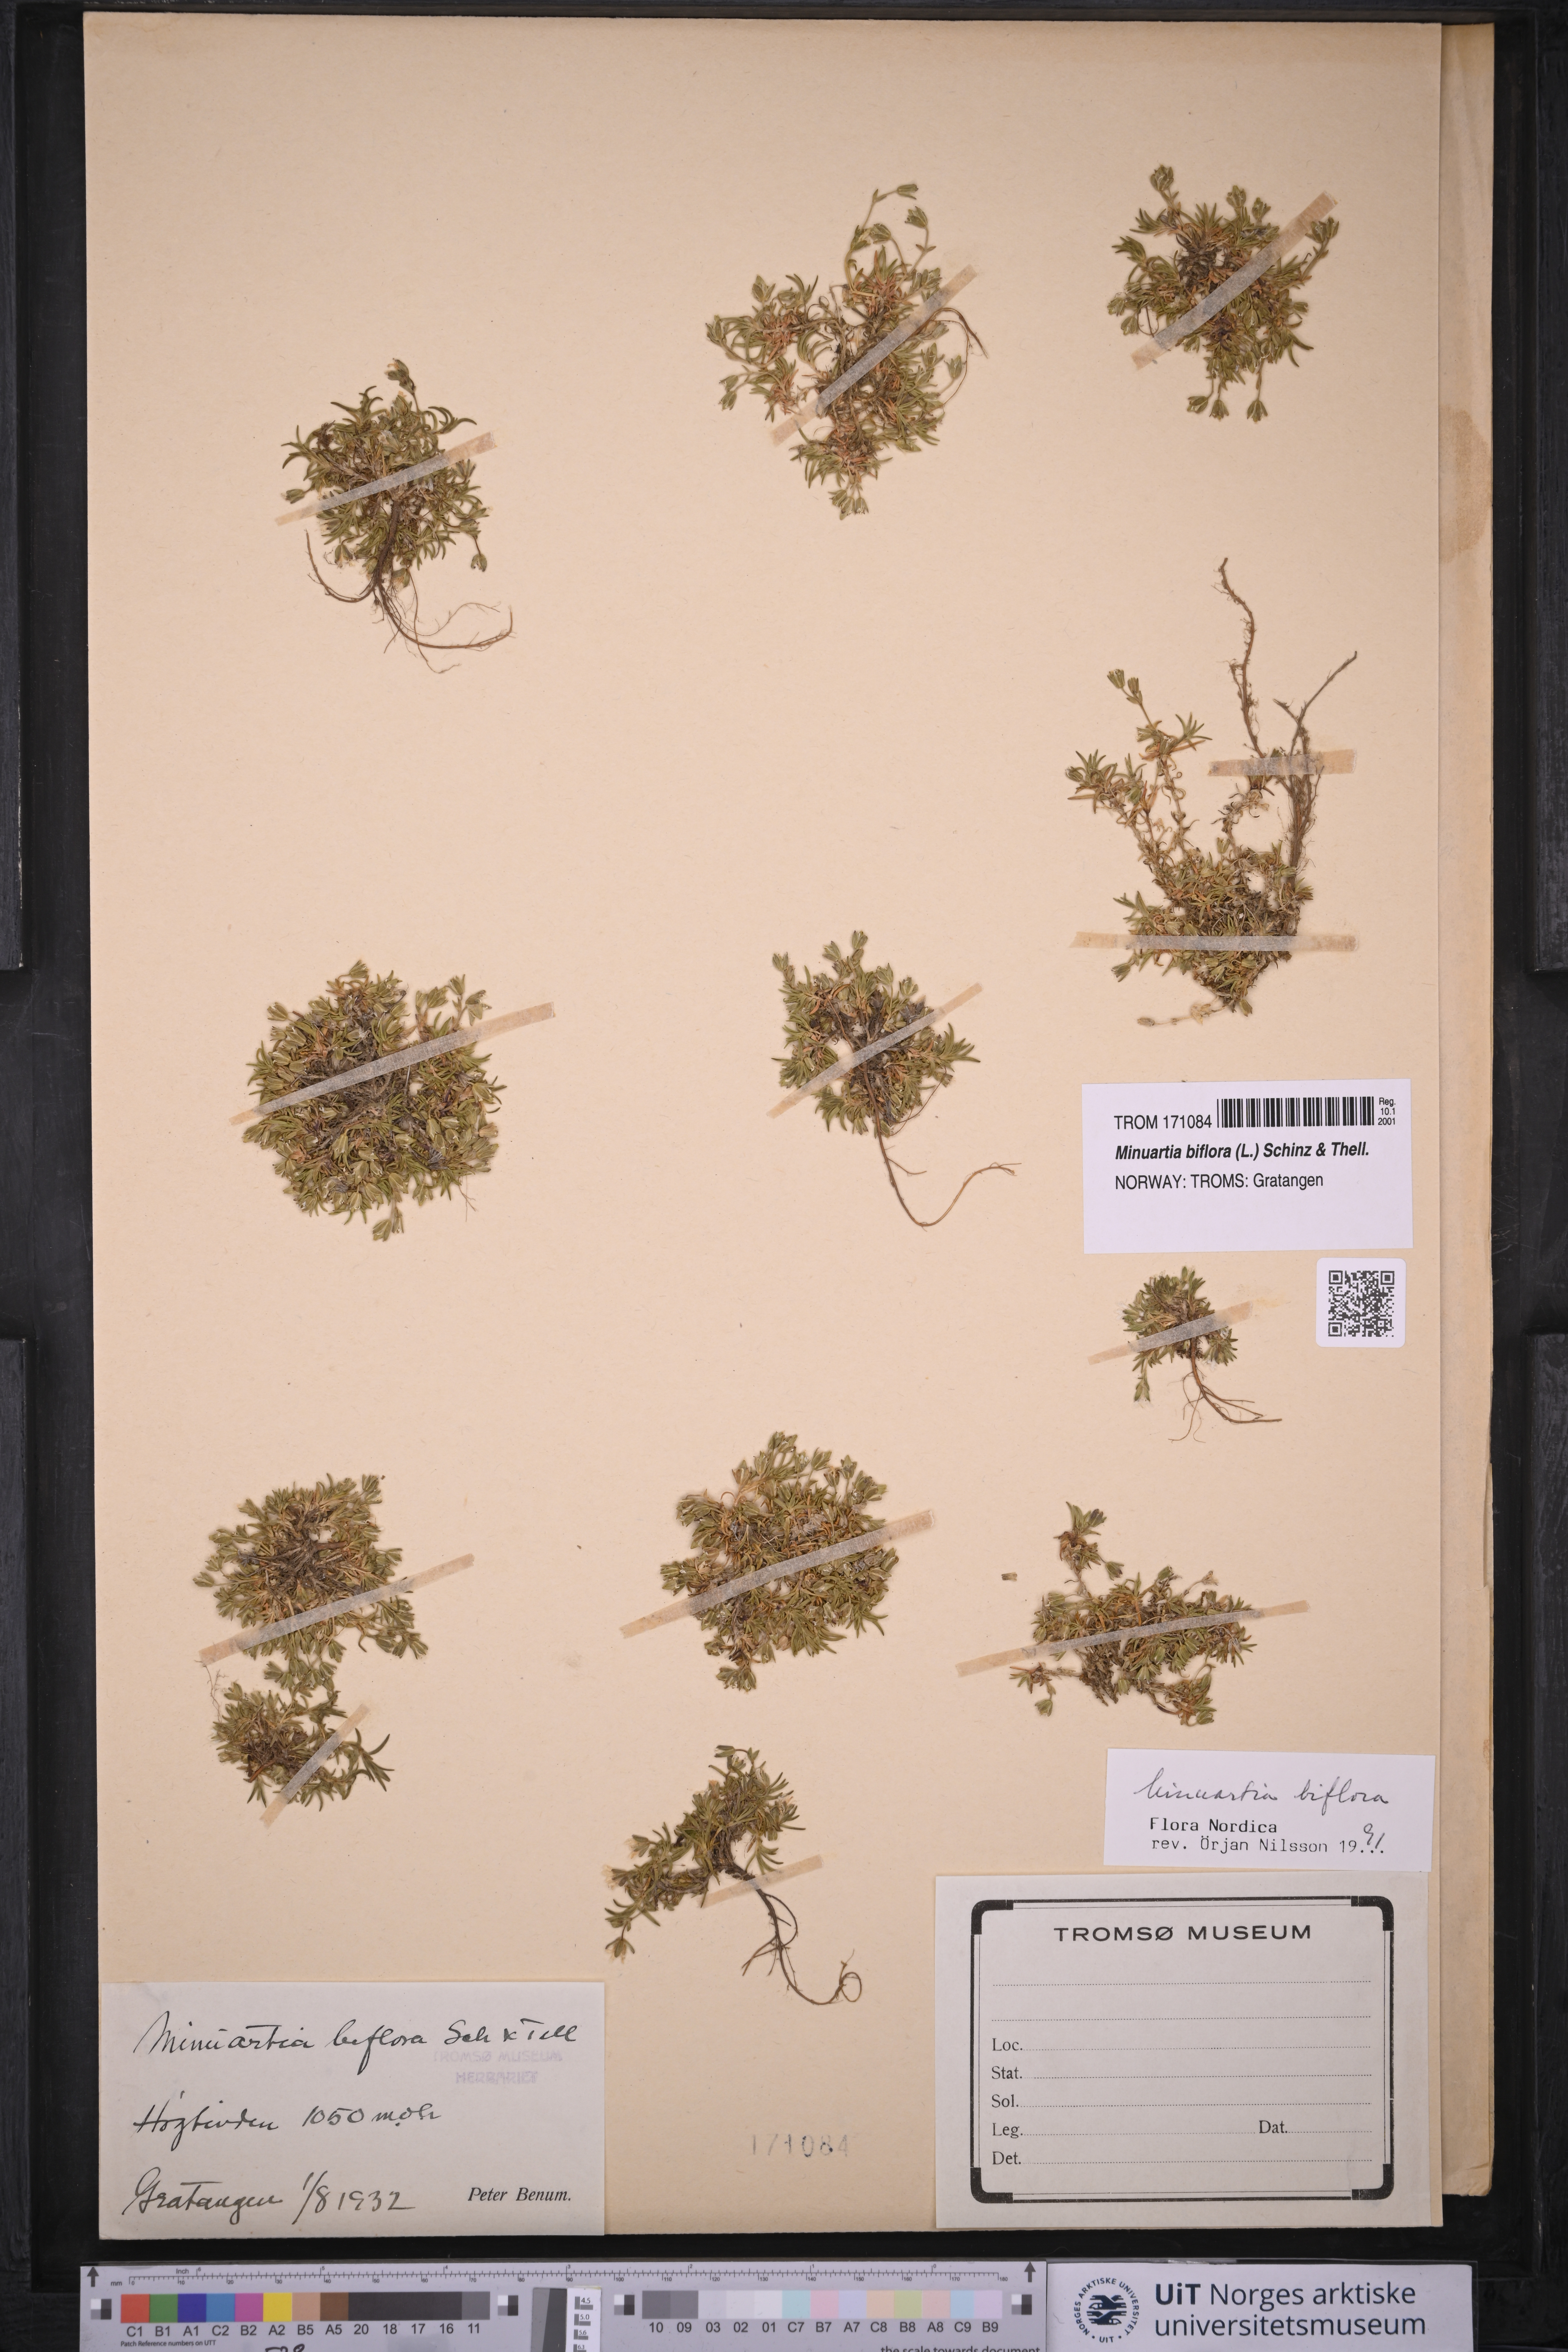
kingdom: Plantae
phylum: Tracheophyta
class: Magnoliopsida
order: Caryophyllales
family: Caryophyllaceae
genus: Cherleria
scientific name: Cherleria biflora
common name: Mountain sandwort
